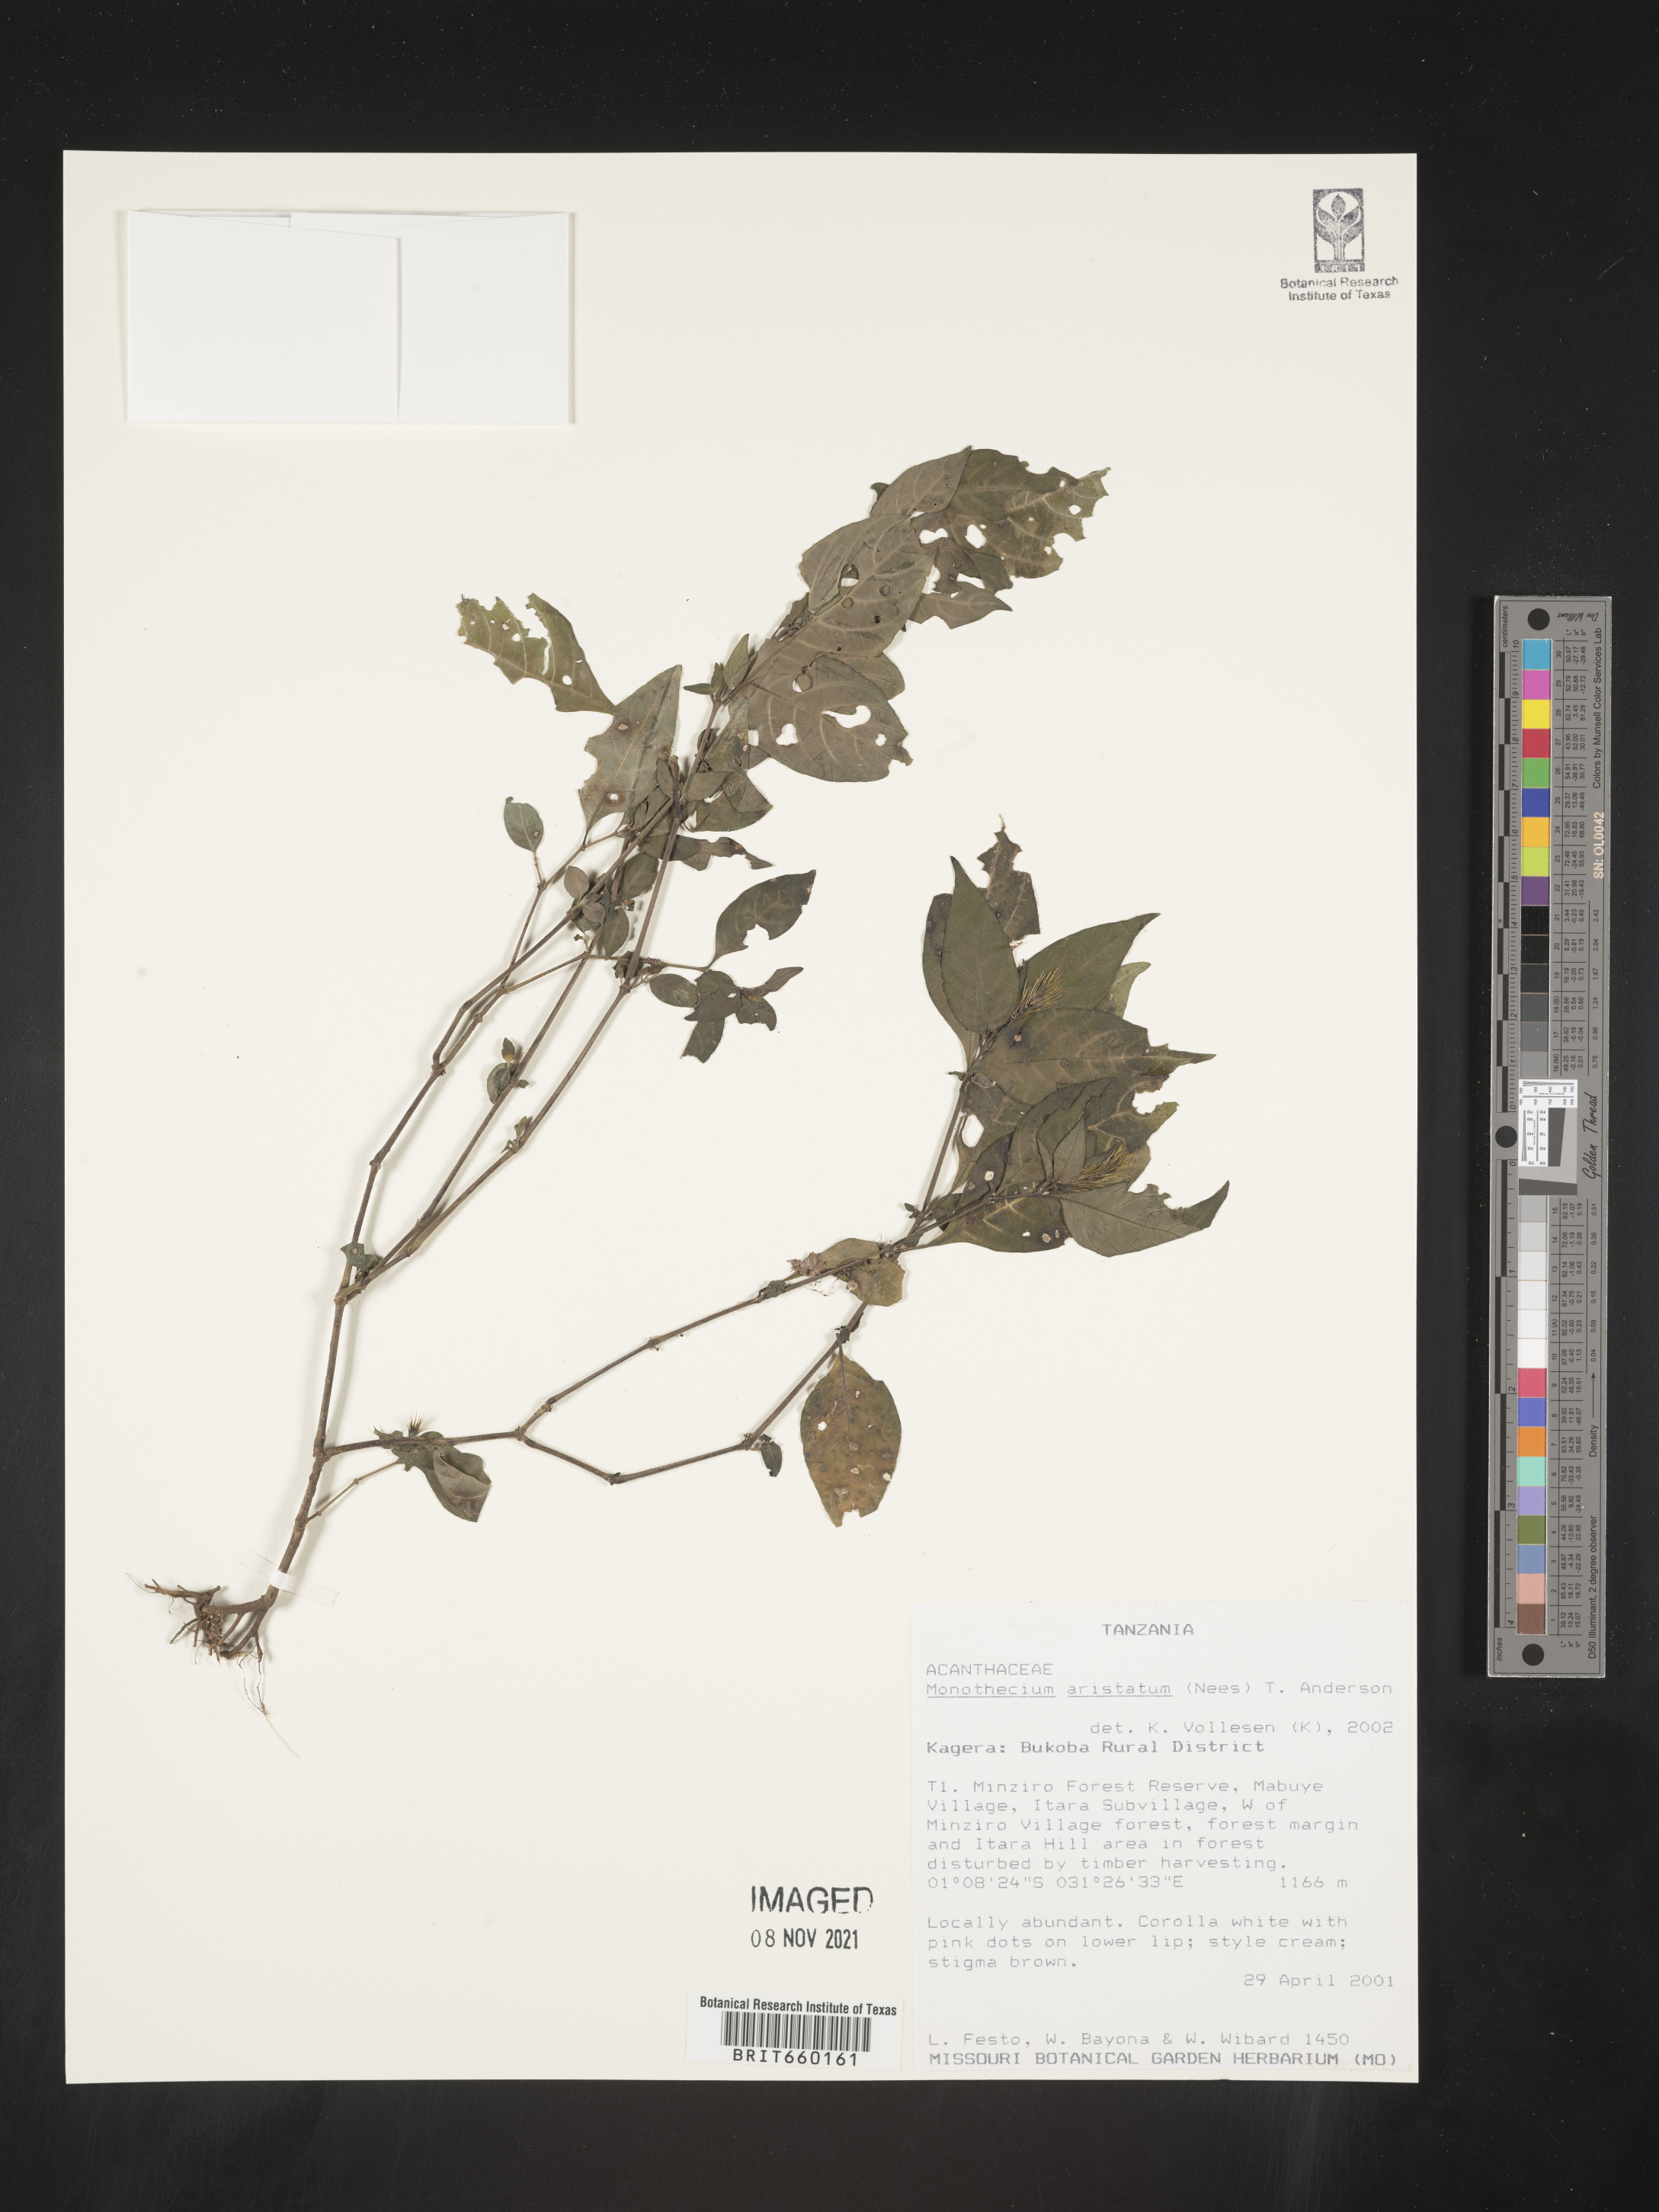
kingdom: Plantae
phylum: Tracheophyta
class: Magnoliopsida
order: Lamiales
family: Acanthaceae
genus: Monothecium
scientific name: Monothecium
